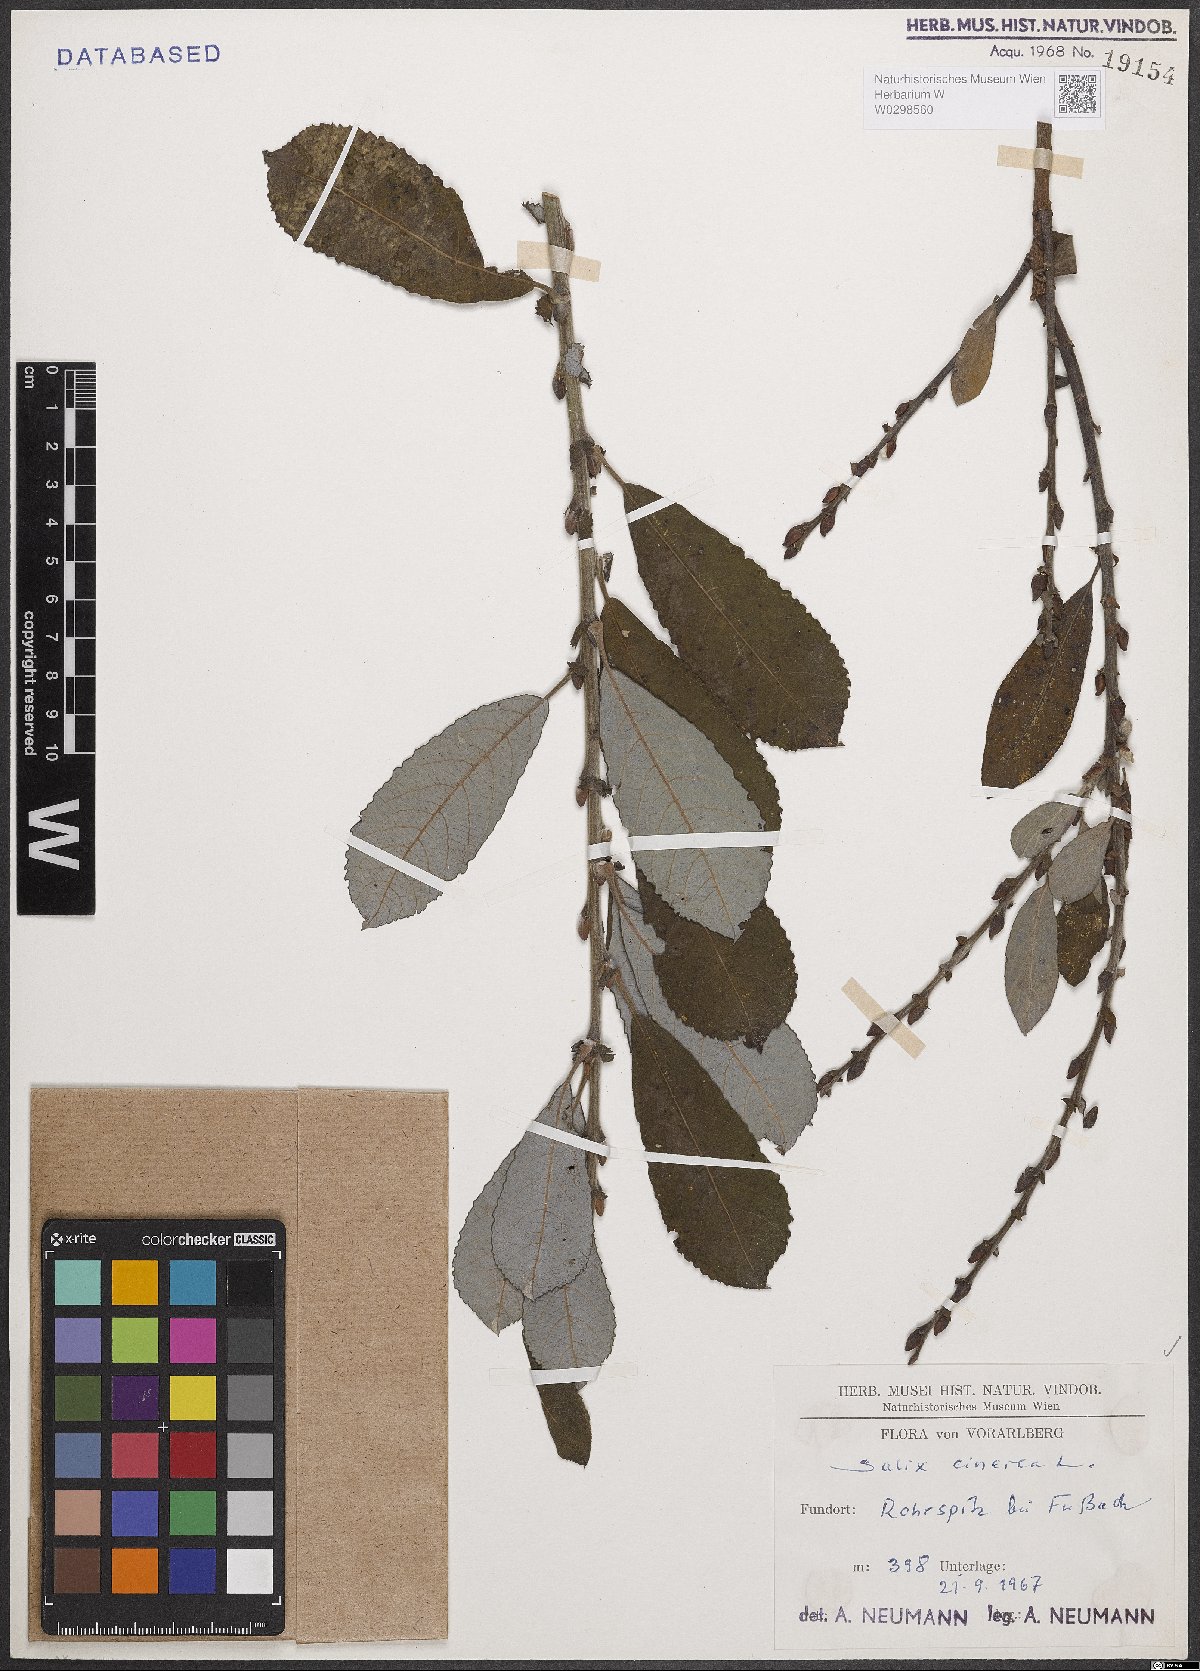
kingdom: Plantae
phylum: Tracheophyta
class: Magnoliopsida
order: Malpighiales
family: Salicaceae
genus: Salix
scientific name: Salix cinerea
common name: Common sallow
